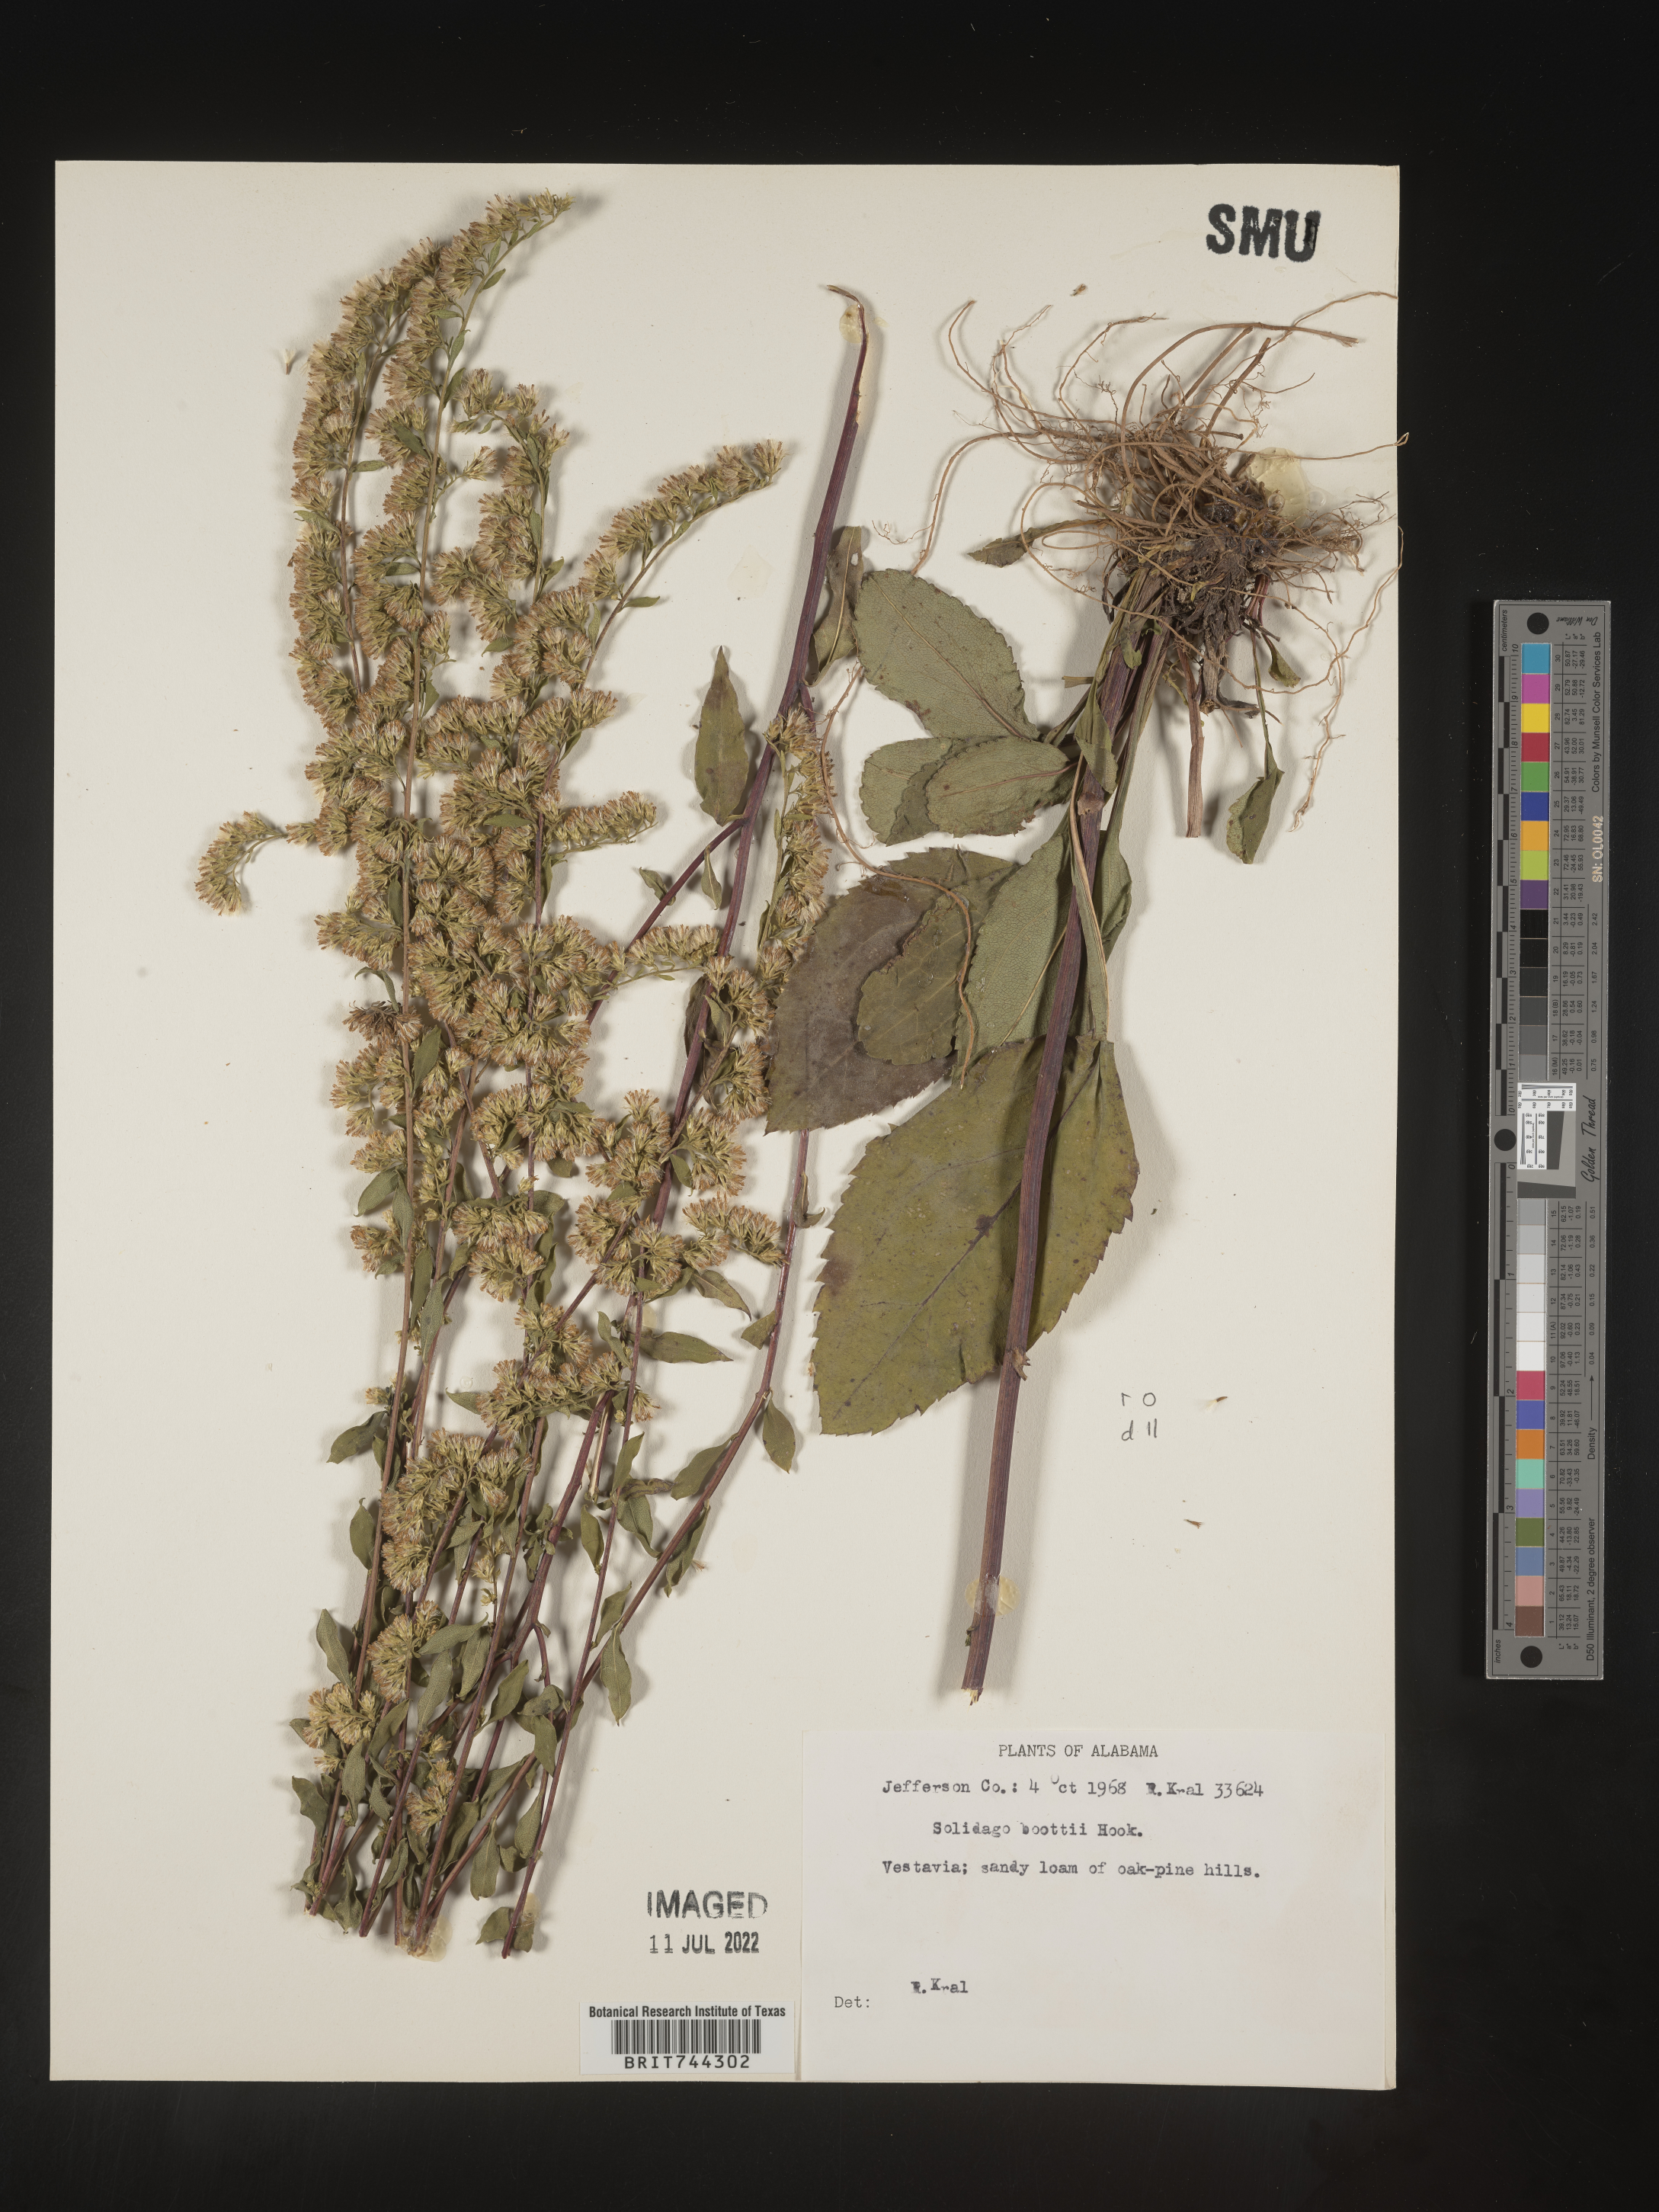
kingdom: Plantae
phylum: Tracheophyta
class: Magnoliopsida
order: Asterales
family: Asteraceae
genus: Solidago
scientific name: Solidago arguta
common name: Atlantic goldenrod
